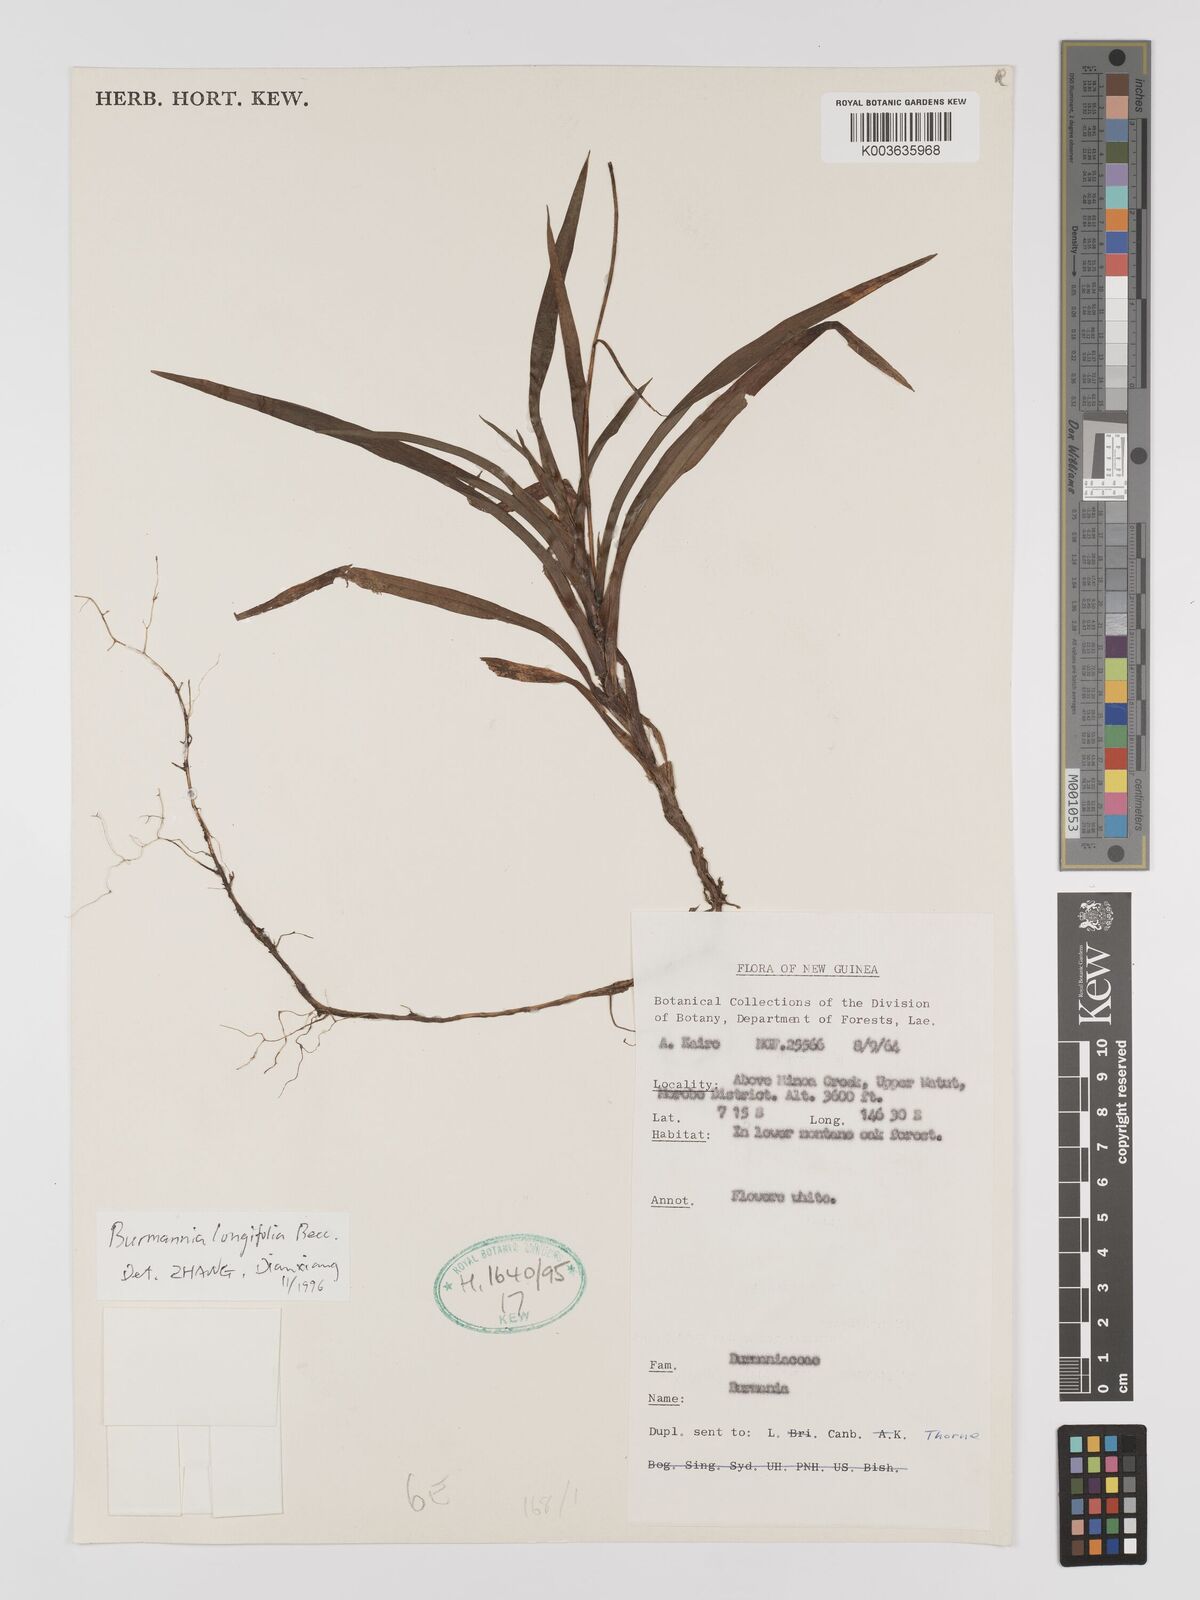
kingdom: Plantae
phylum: Tracheophyta
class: Liliopsida
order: Dioscoreales
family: Burmanniaceae
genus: Burmannia
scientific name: Burmannia longifolia
